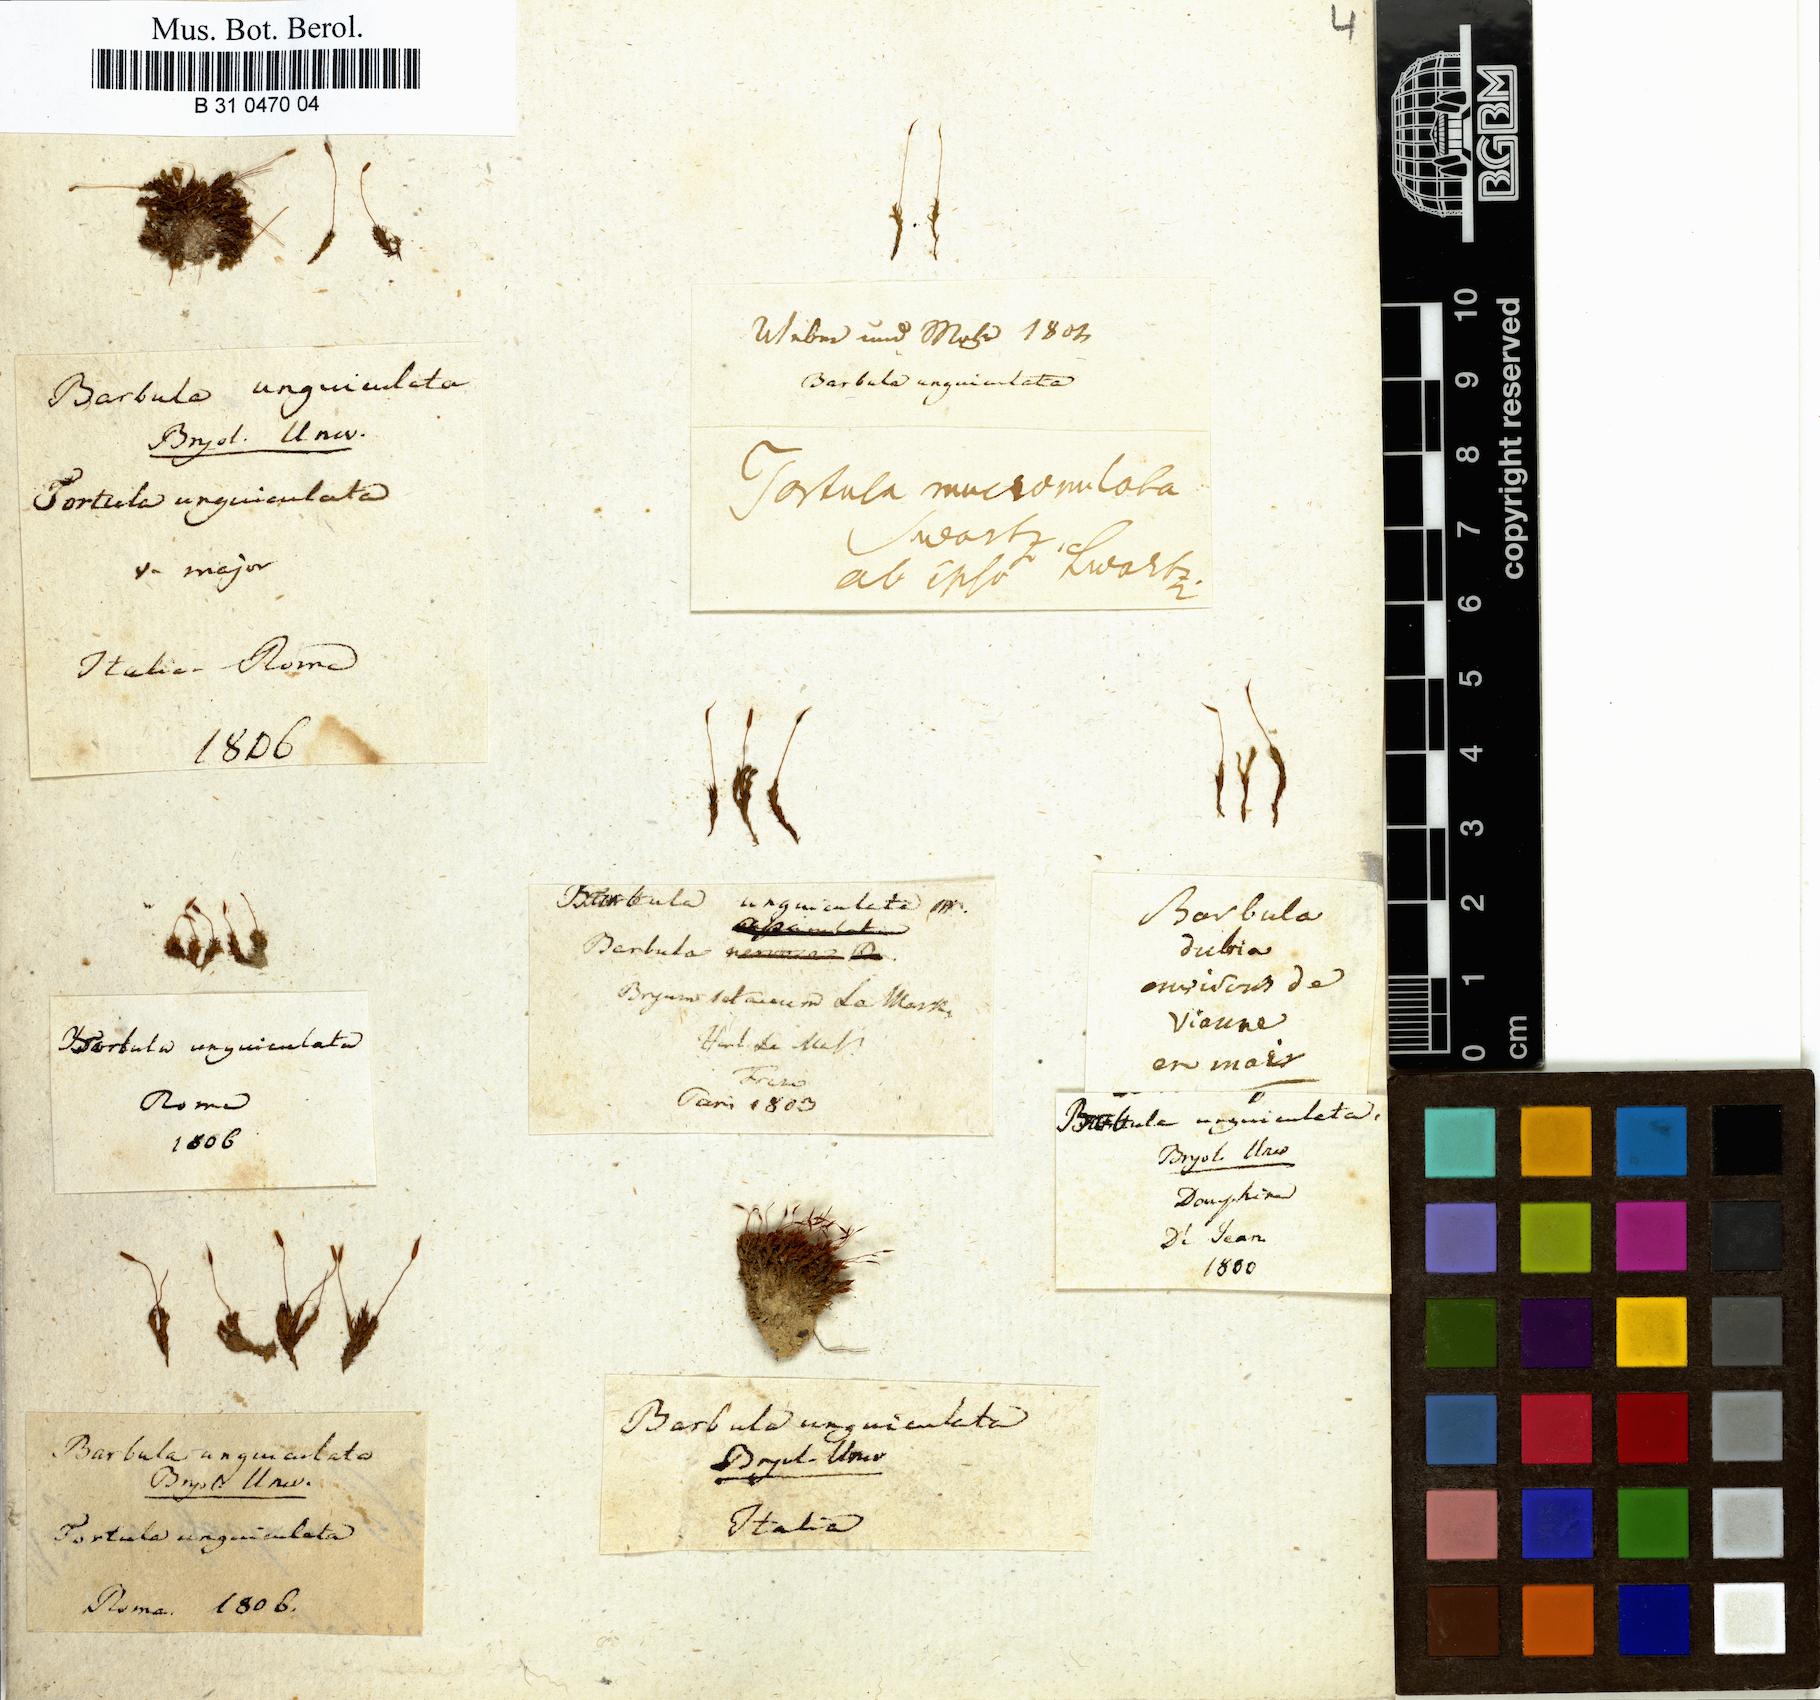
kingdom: Plantae
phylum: Bryophyta
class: Bryopsida
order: Pottiales
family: Pottiaceae
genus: Barbula
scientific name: Barbula unguiculata
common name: Prickly beard moss
